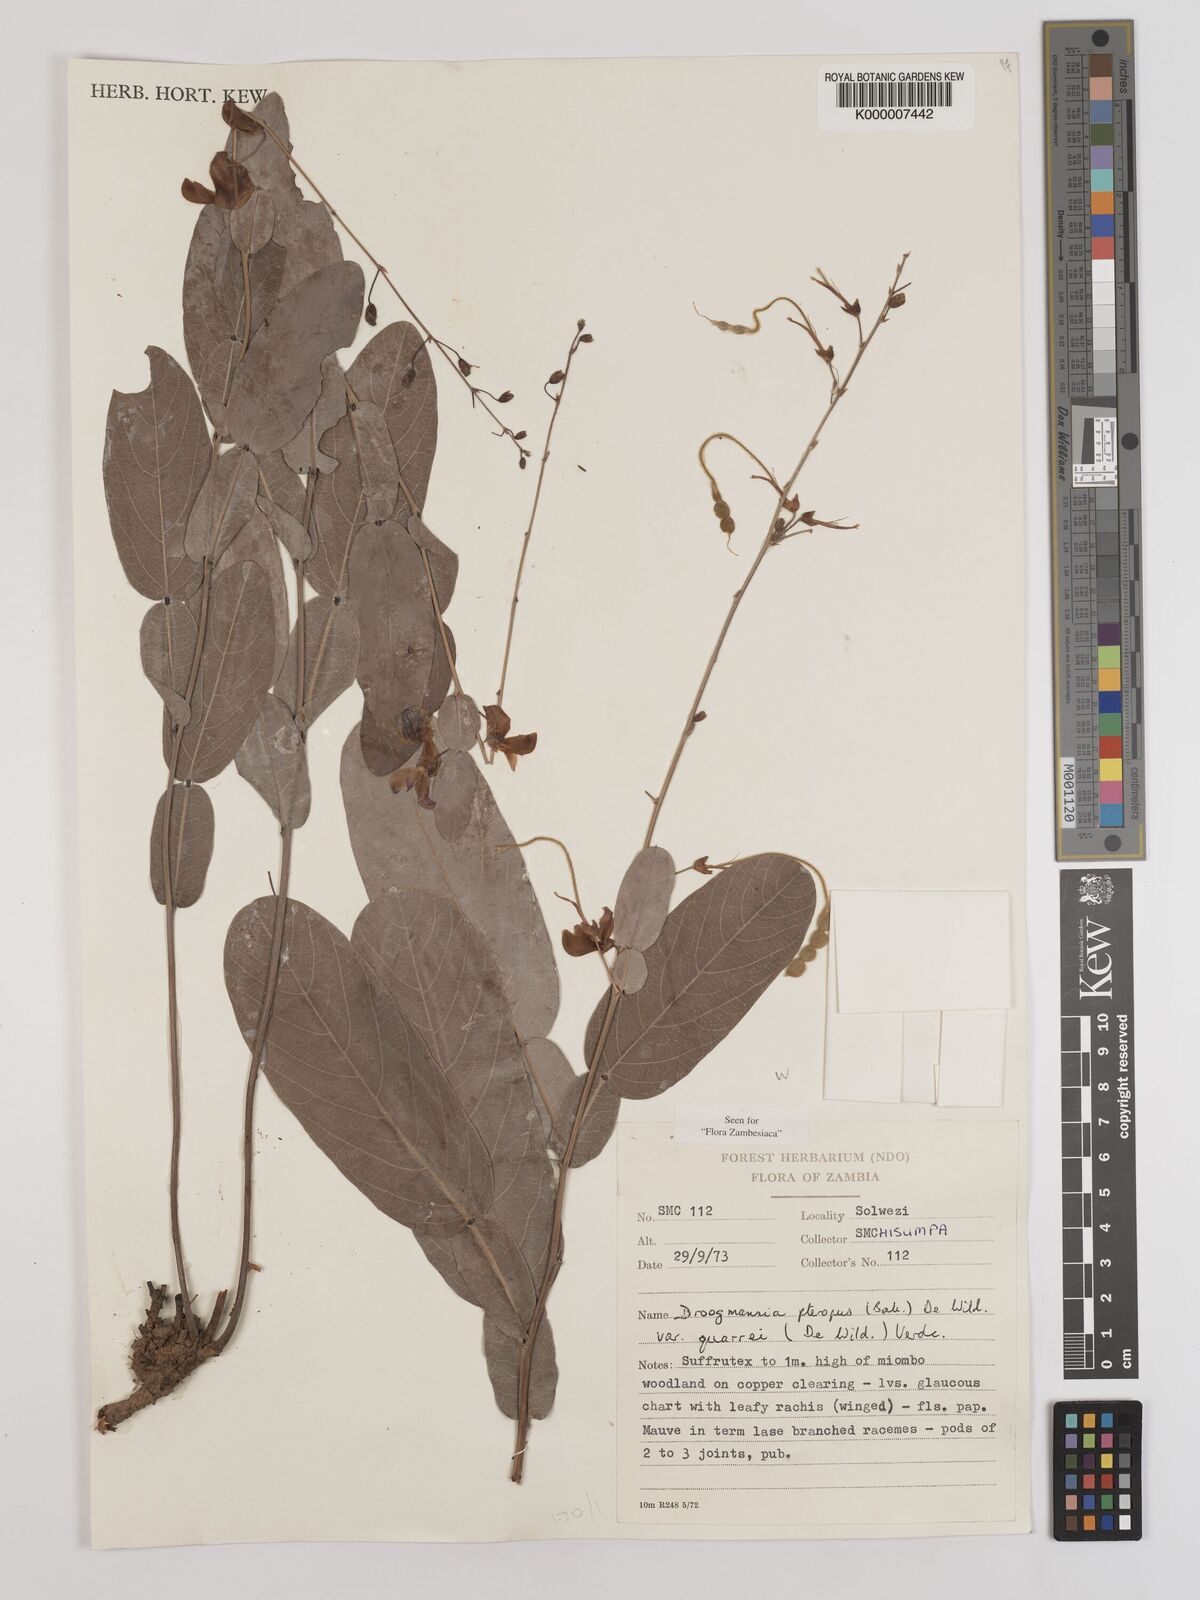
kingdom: Plantae
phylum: Tracheophyta
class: Magnoliopsida
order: Fabales
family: Fabaceae
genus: Droogmansia
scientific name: Droogmansia pteropus
